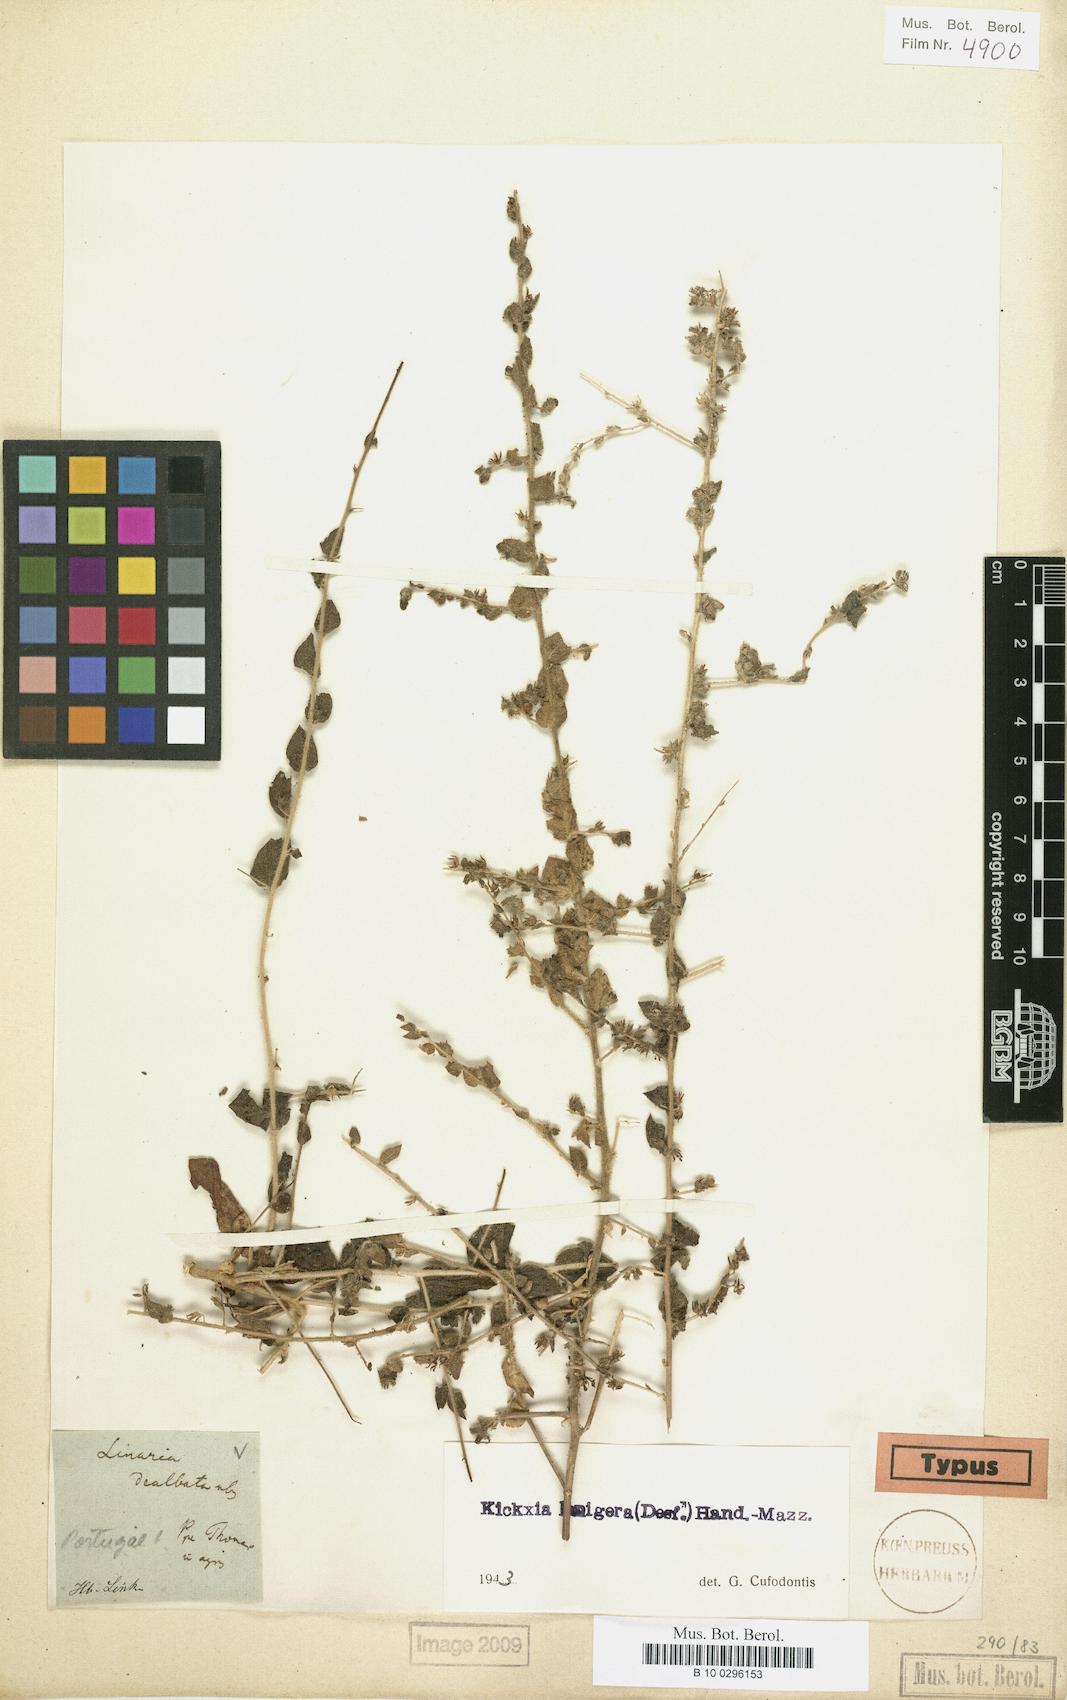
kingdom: Plantae
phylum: Tracheophyta
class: Magnoliopsida
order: Lamiales
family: Plantaginaceae
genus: Kickxia
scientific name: Kickxia lanigera
